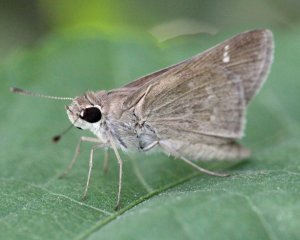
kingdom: Animalia
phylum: Arthropoda
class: Insecta
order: Lepidoptera
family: Hesperiidae
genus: Lerodea
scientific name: Lerodea eufala
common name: Eufala Skipper
